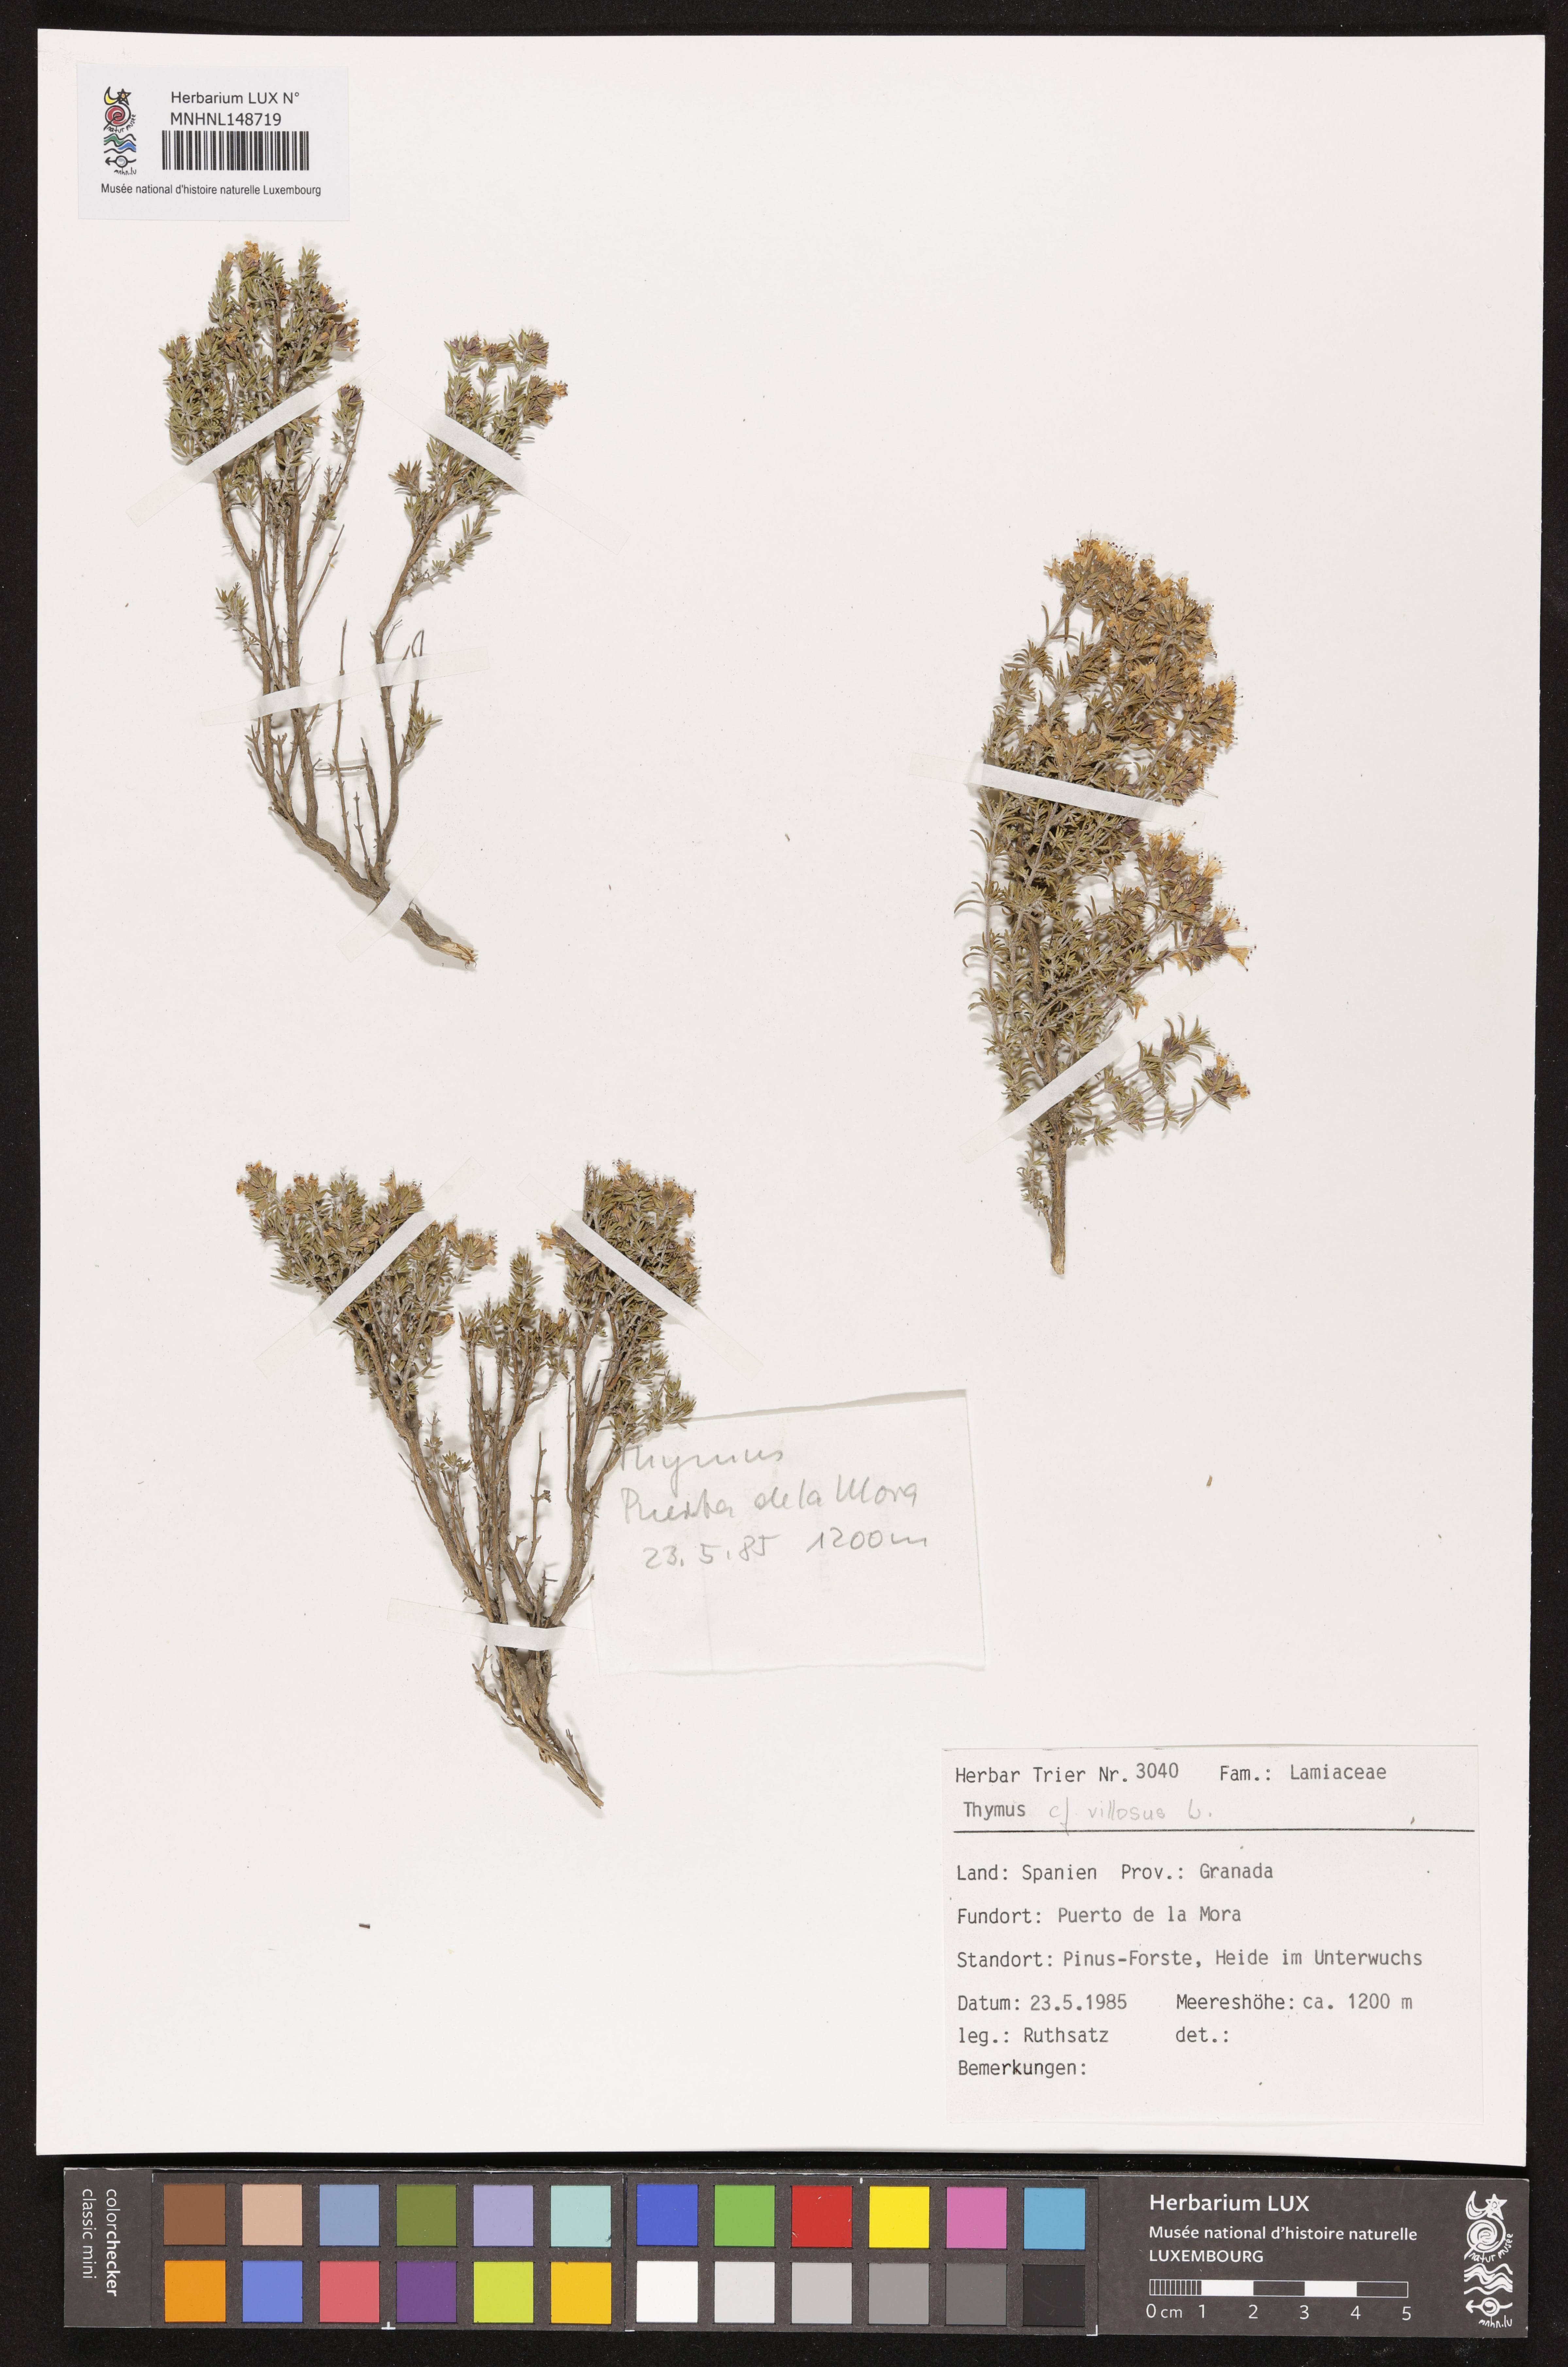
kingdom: Plantae
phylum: Tracheophyta
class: Magnoliopsida
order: Lamiales
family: Lamiaceae
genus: Thymus
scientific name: Thymus villosus
